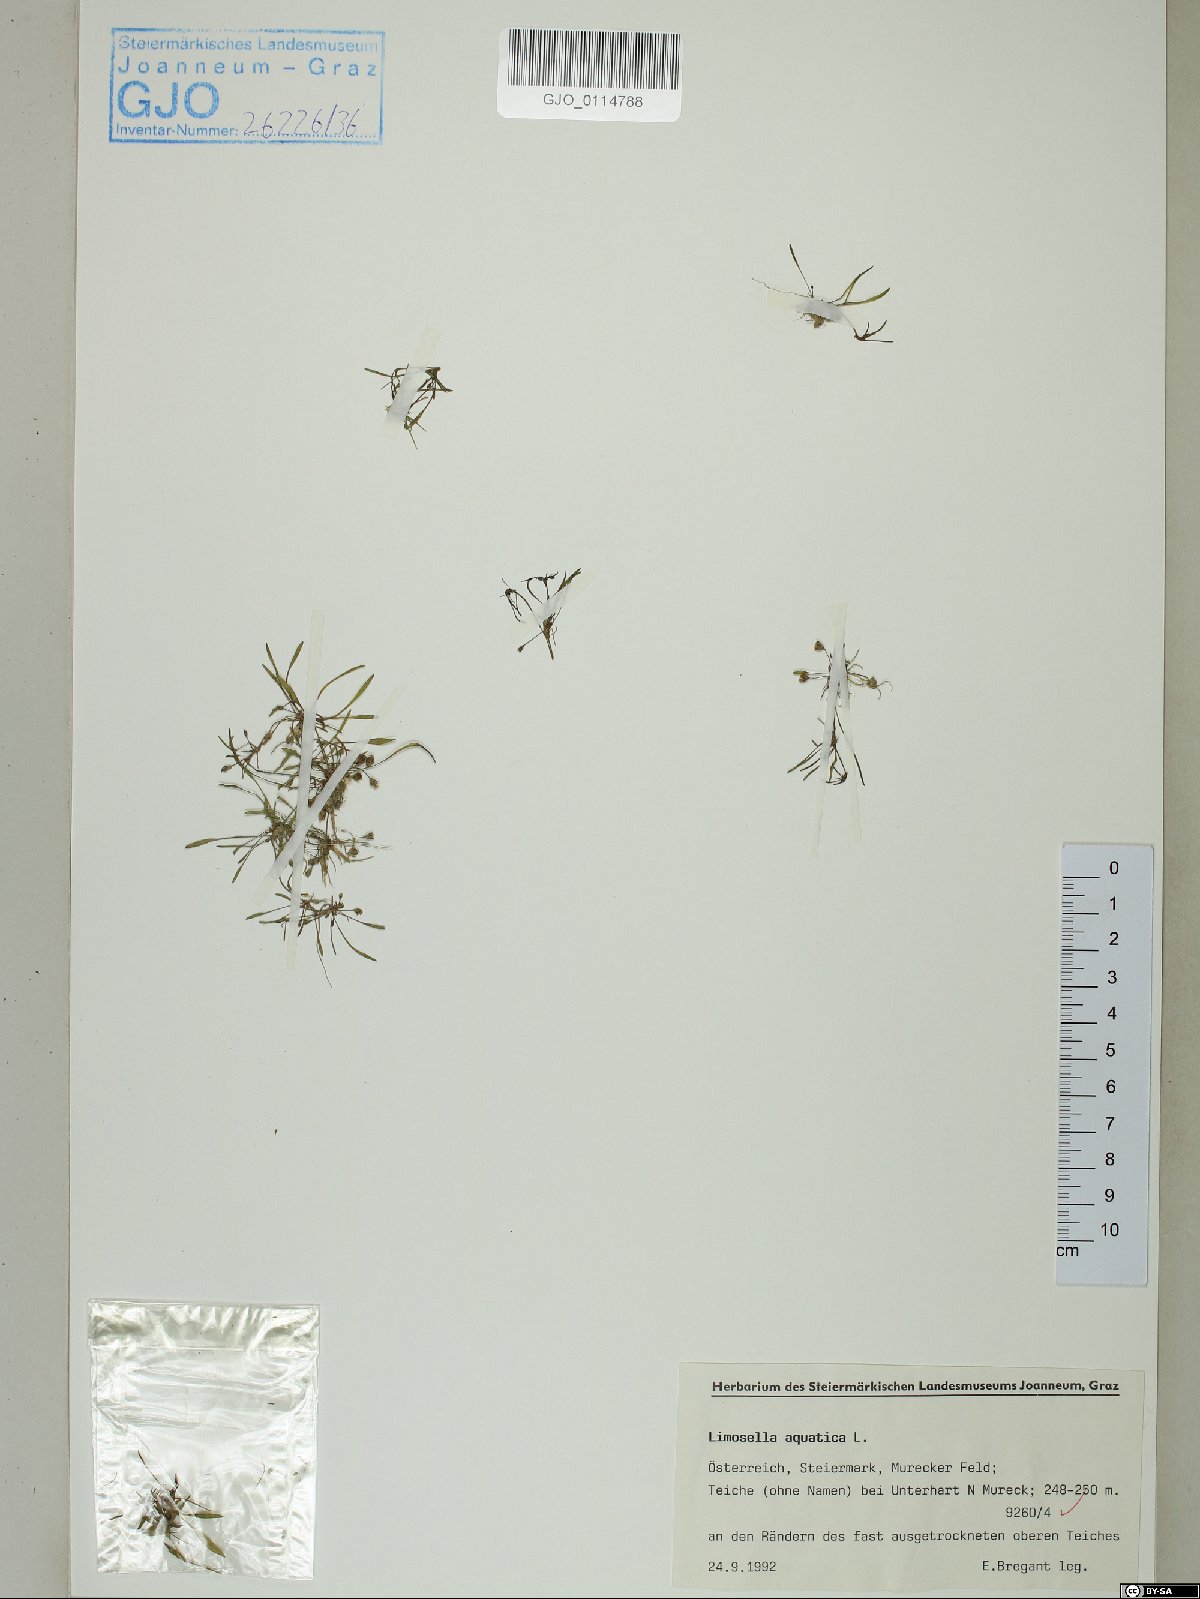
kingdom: Plantae
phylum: Tracheophyta
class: Magnoliopsida
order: Lamiales
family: Scrophulariaceae
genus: Limosella
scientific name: Limosella aquatica
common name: Mudwort
